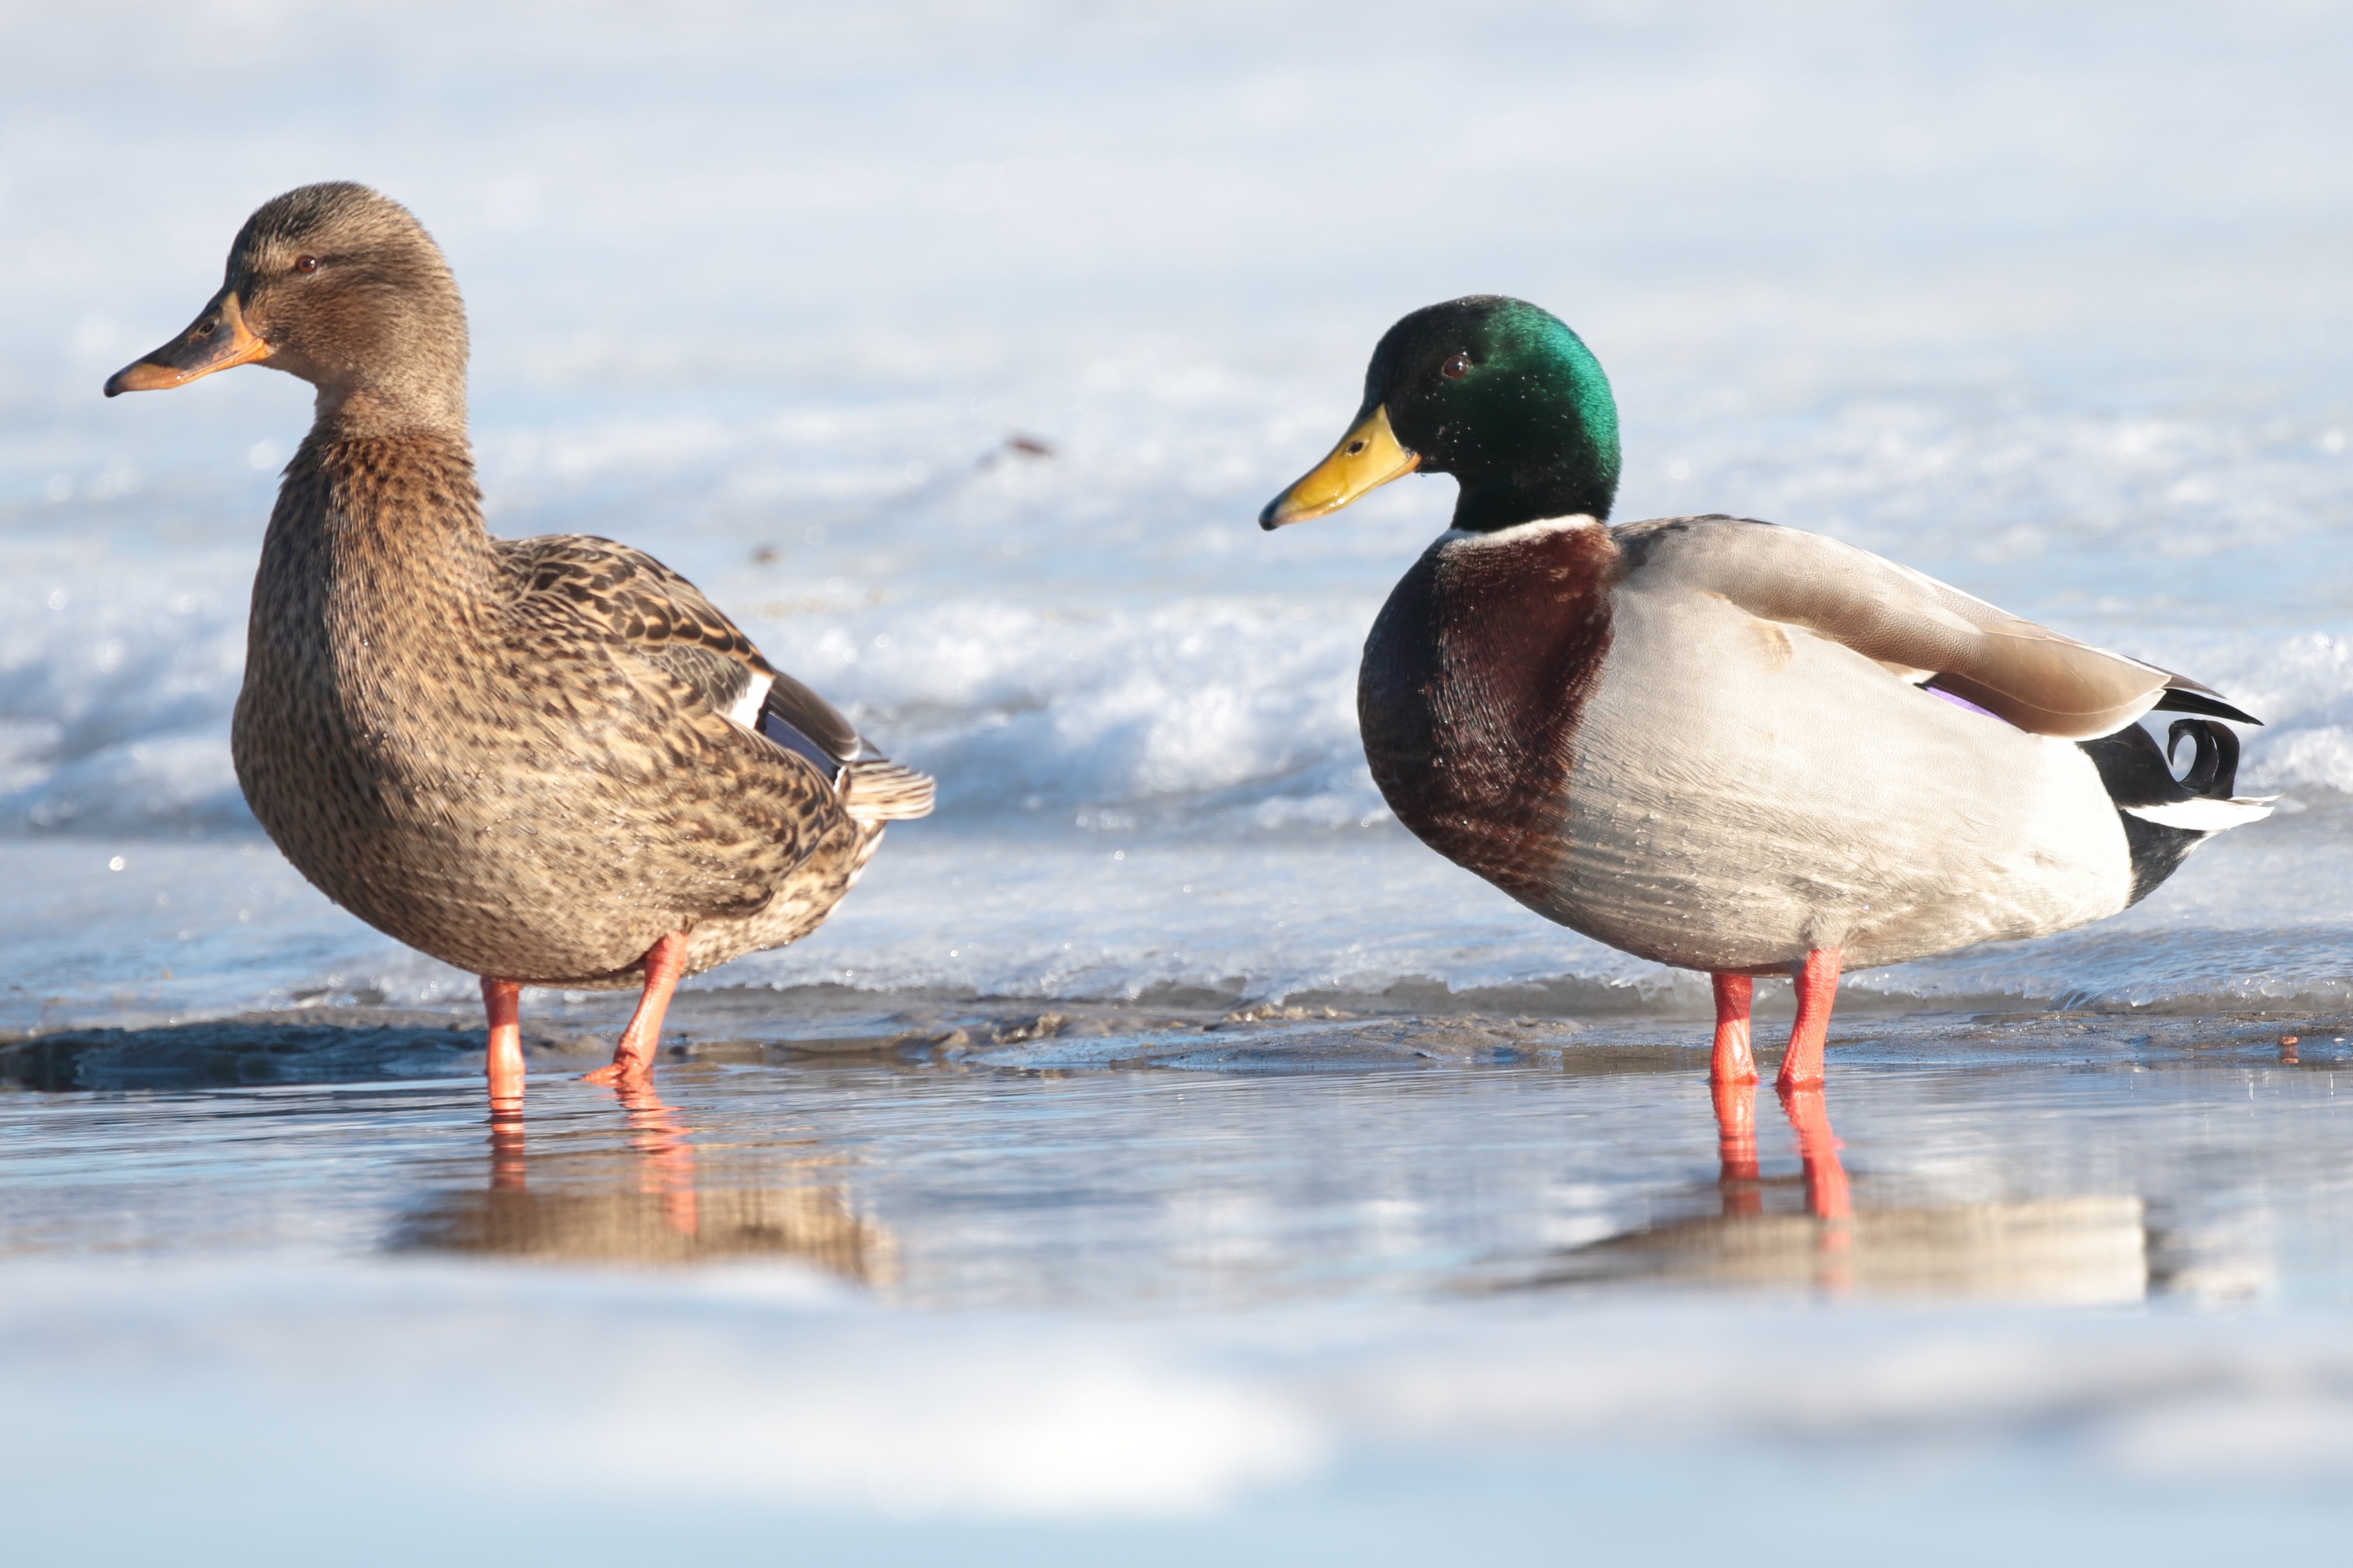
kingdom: Animalia
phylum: Chordata
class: Aves
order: Anseriformes
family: Anatidae
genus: Anas
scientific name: Anas platyrhynchos
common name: Gråand
